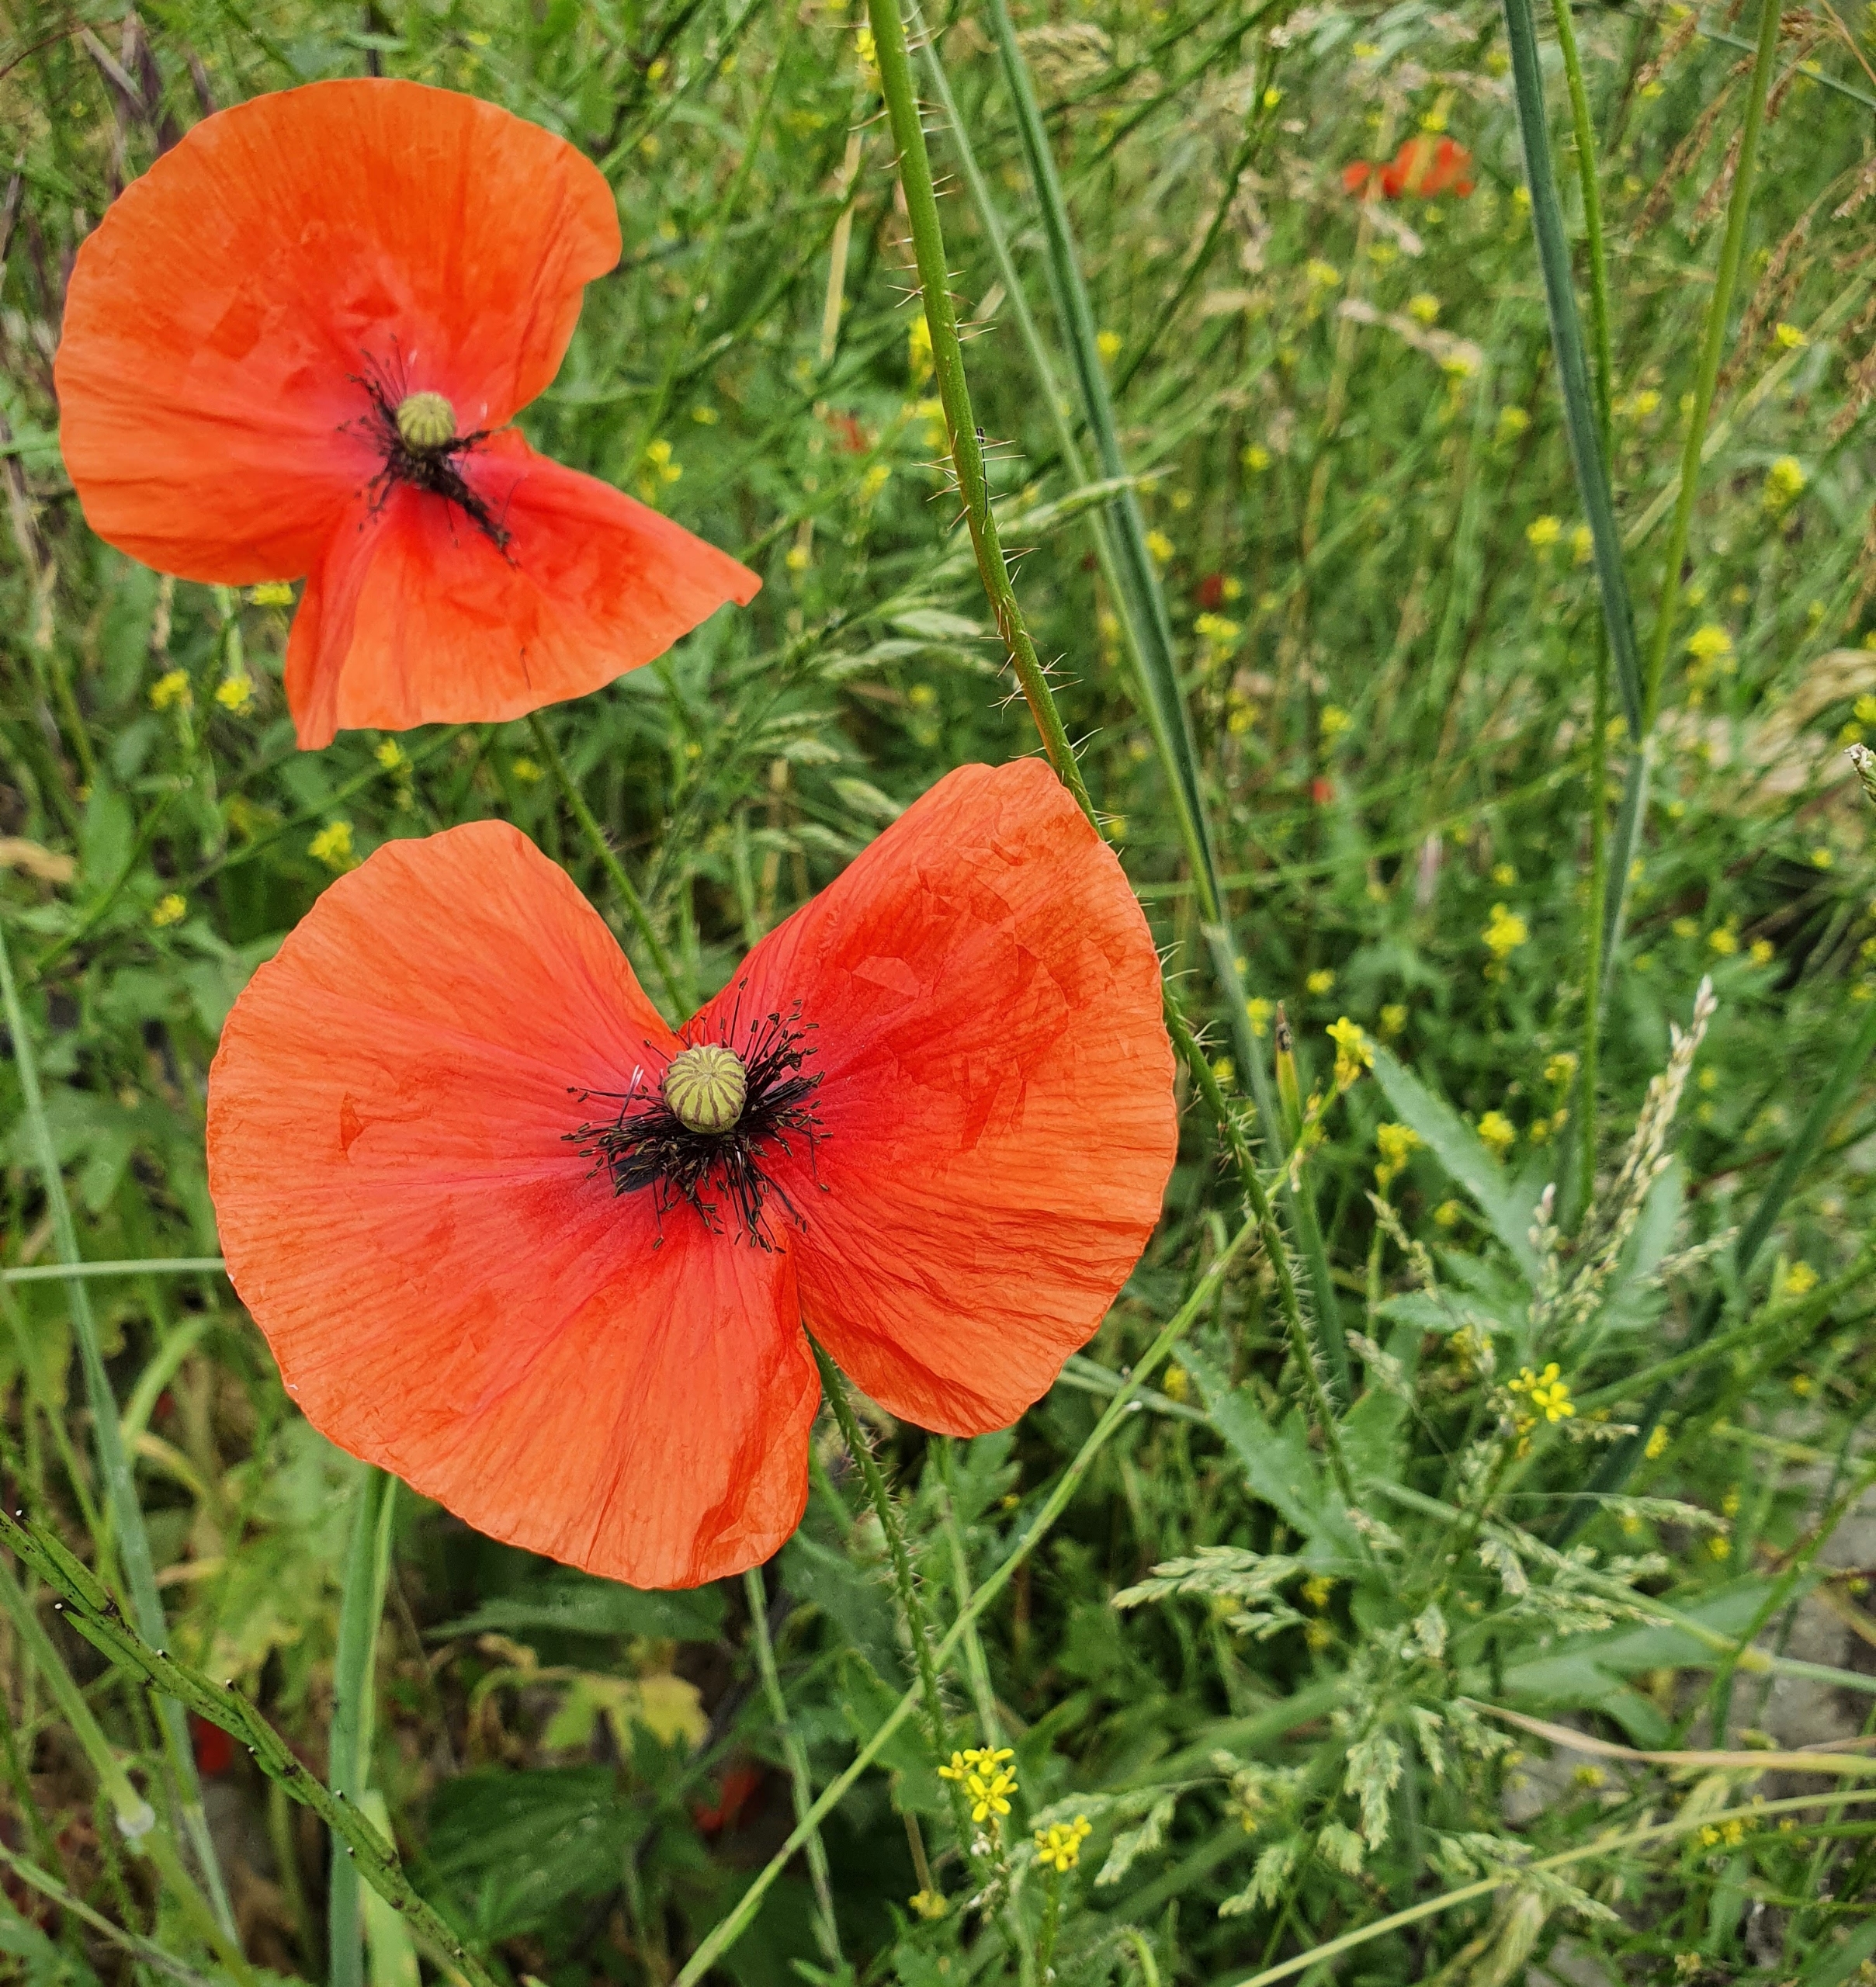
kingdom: Plantae
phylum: Tracheophyta
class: Magnoliopsida
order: Ranunculales
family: Papaveraceae
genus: Papaver
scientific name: Papaver rhoeas
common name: Korn-valmue
